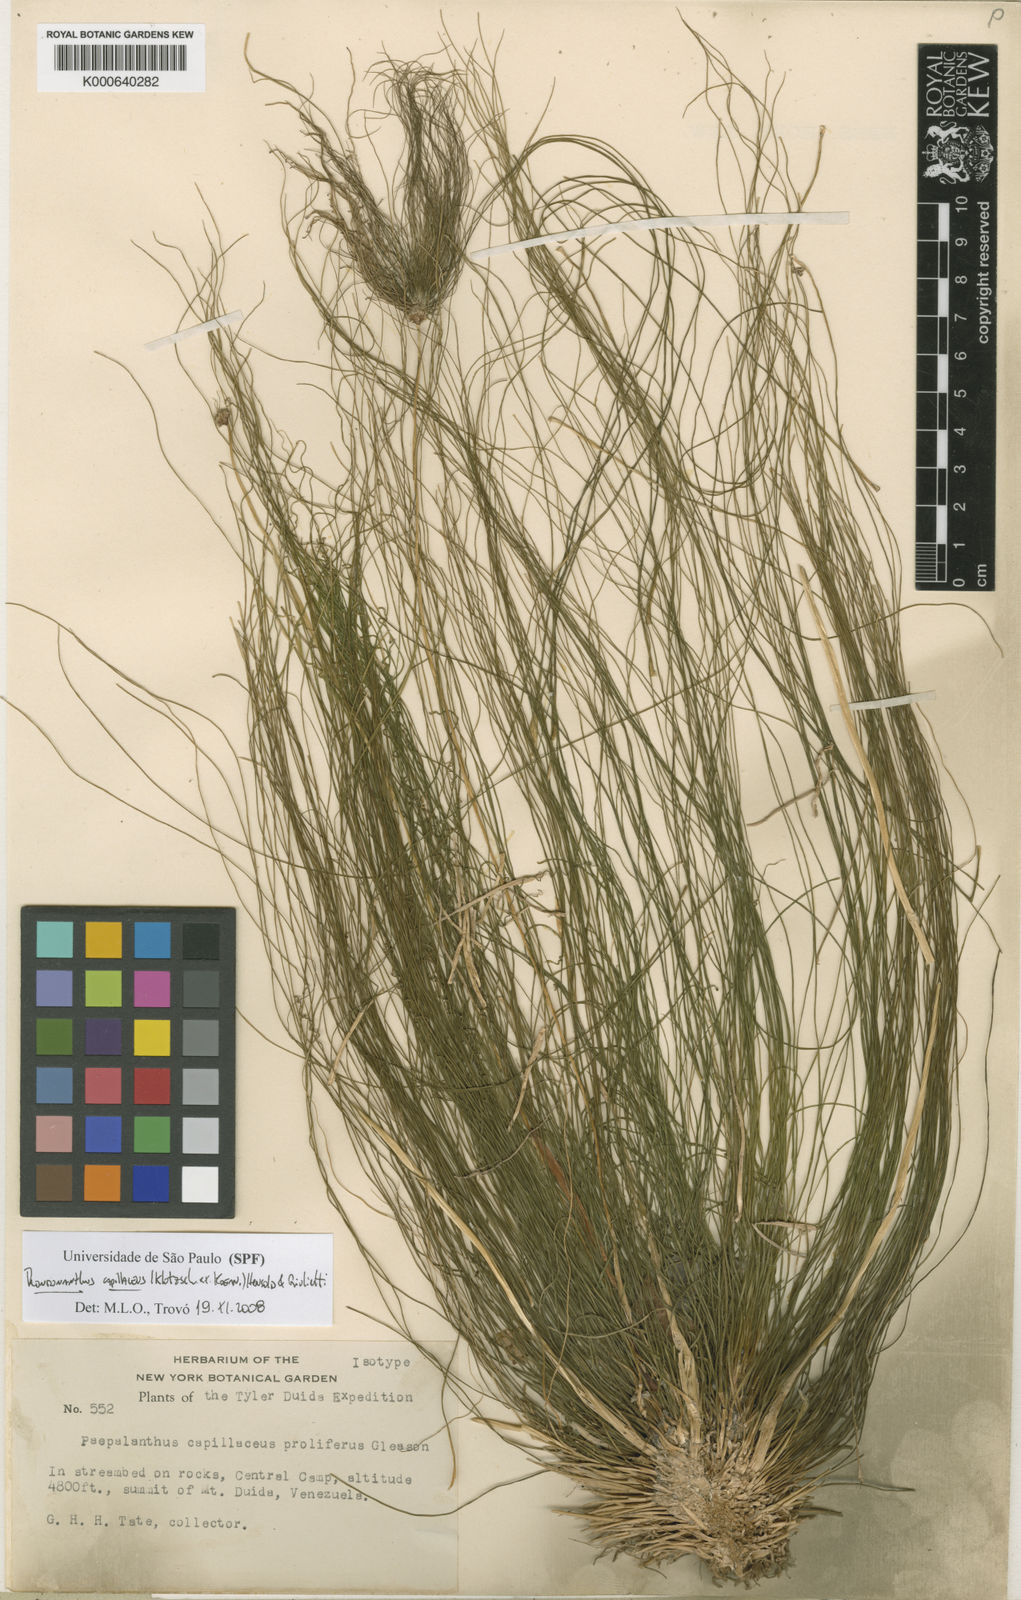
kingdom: Plantae
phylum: Tracheophyta
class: Liliopsida
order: Poales
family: Eriocaulaceae
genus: Rondonanthus
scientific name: Rondonanthus
